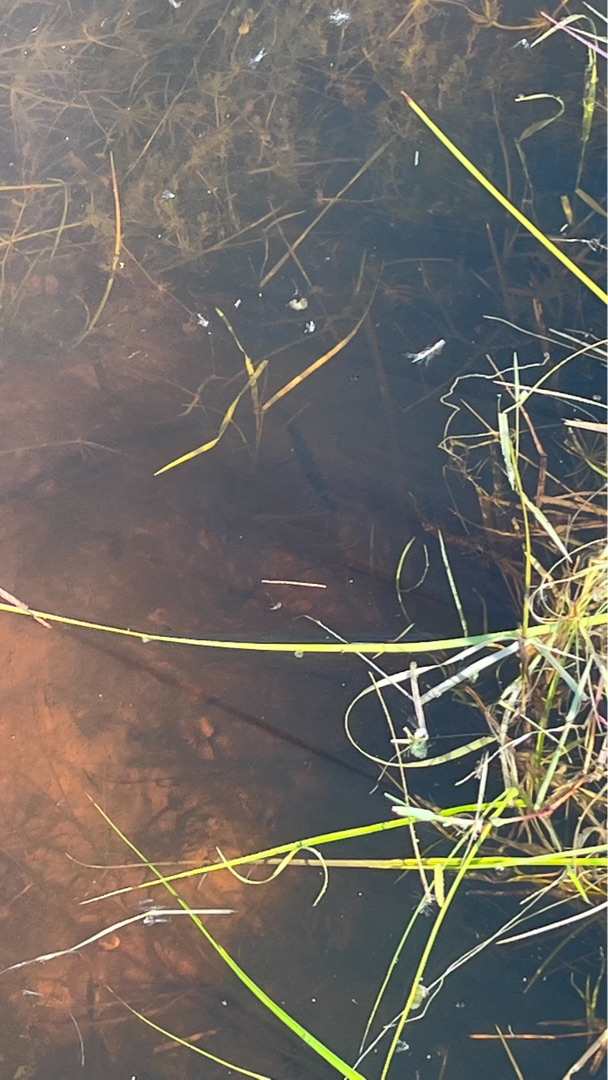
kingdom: Animalia
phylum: Chordata
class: Amphibia
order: Caudata
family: Salamandridae
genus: Lissotriton
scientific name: Lissotriton vulgaris
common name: Lille vandsalamander
